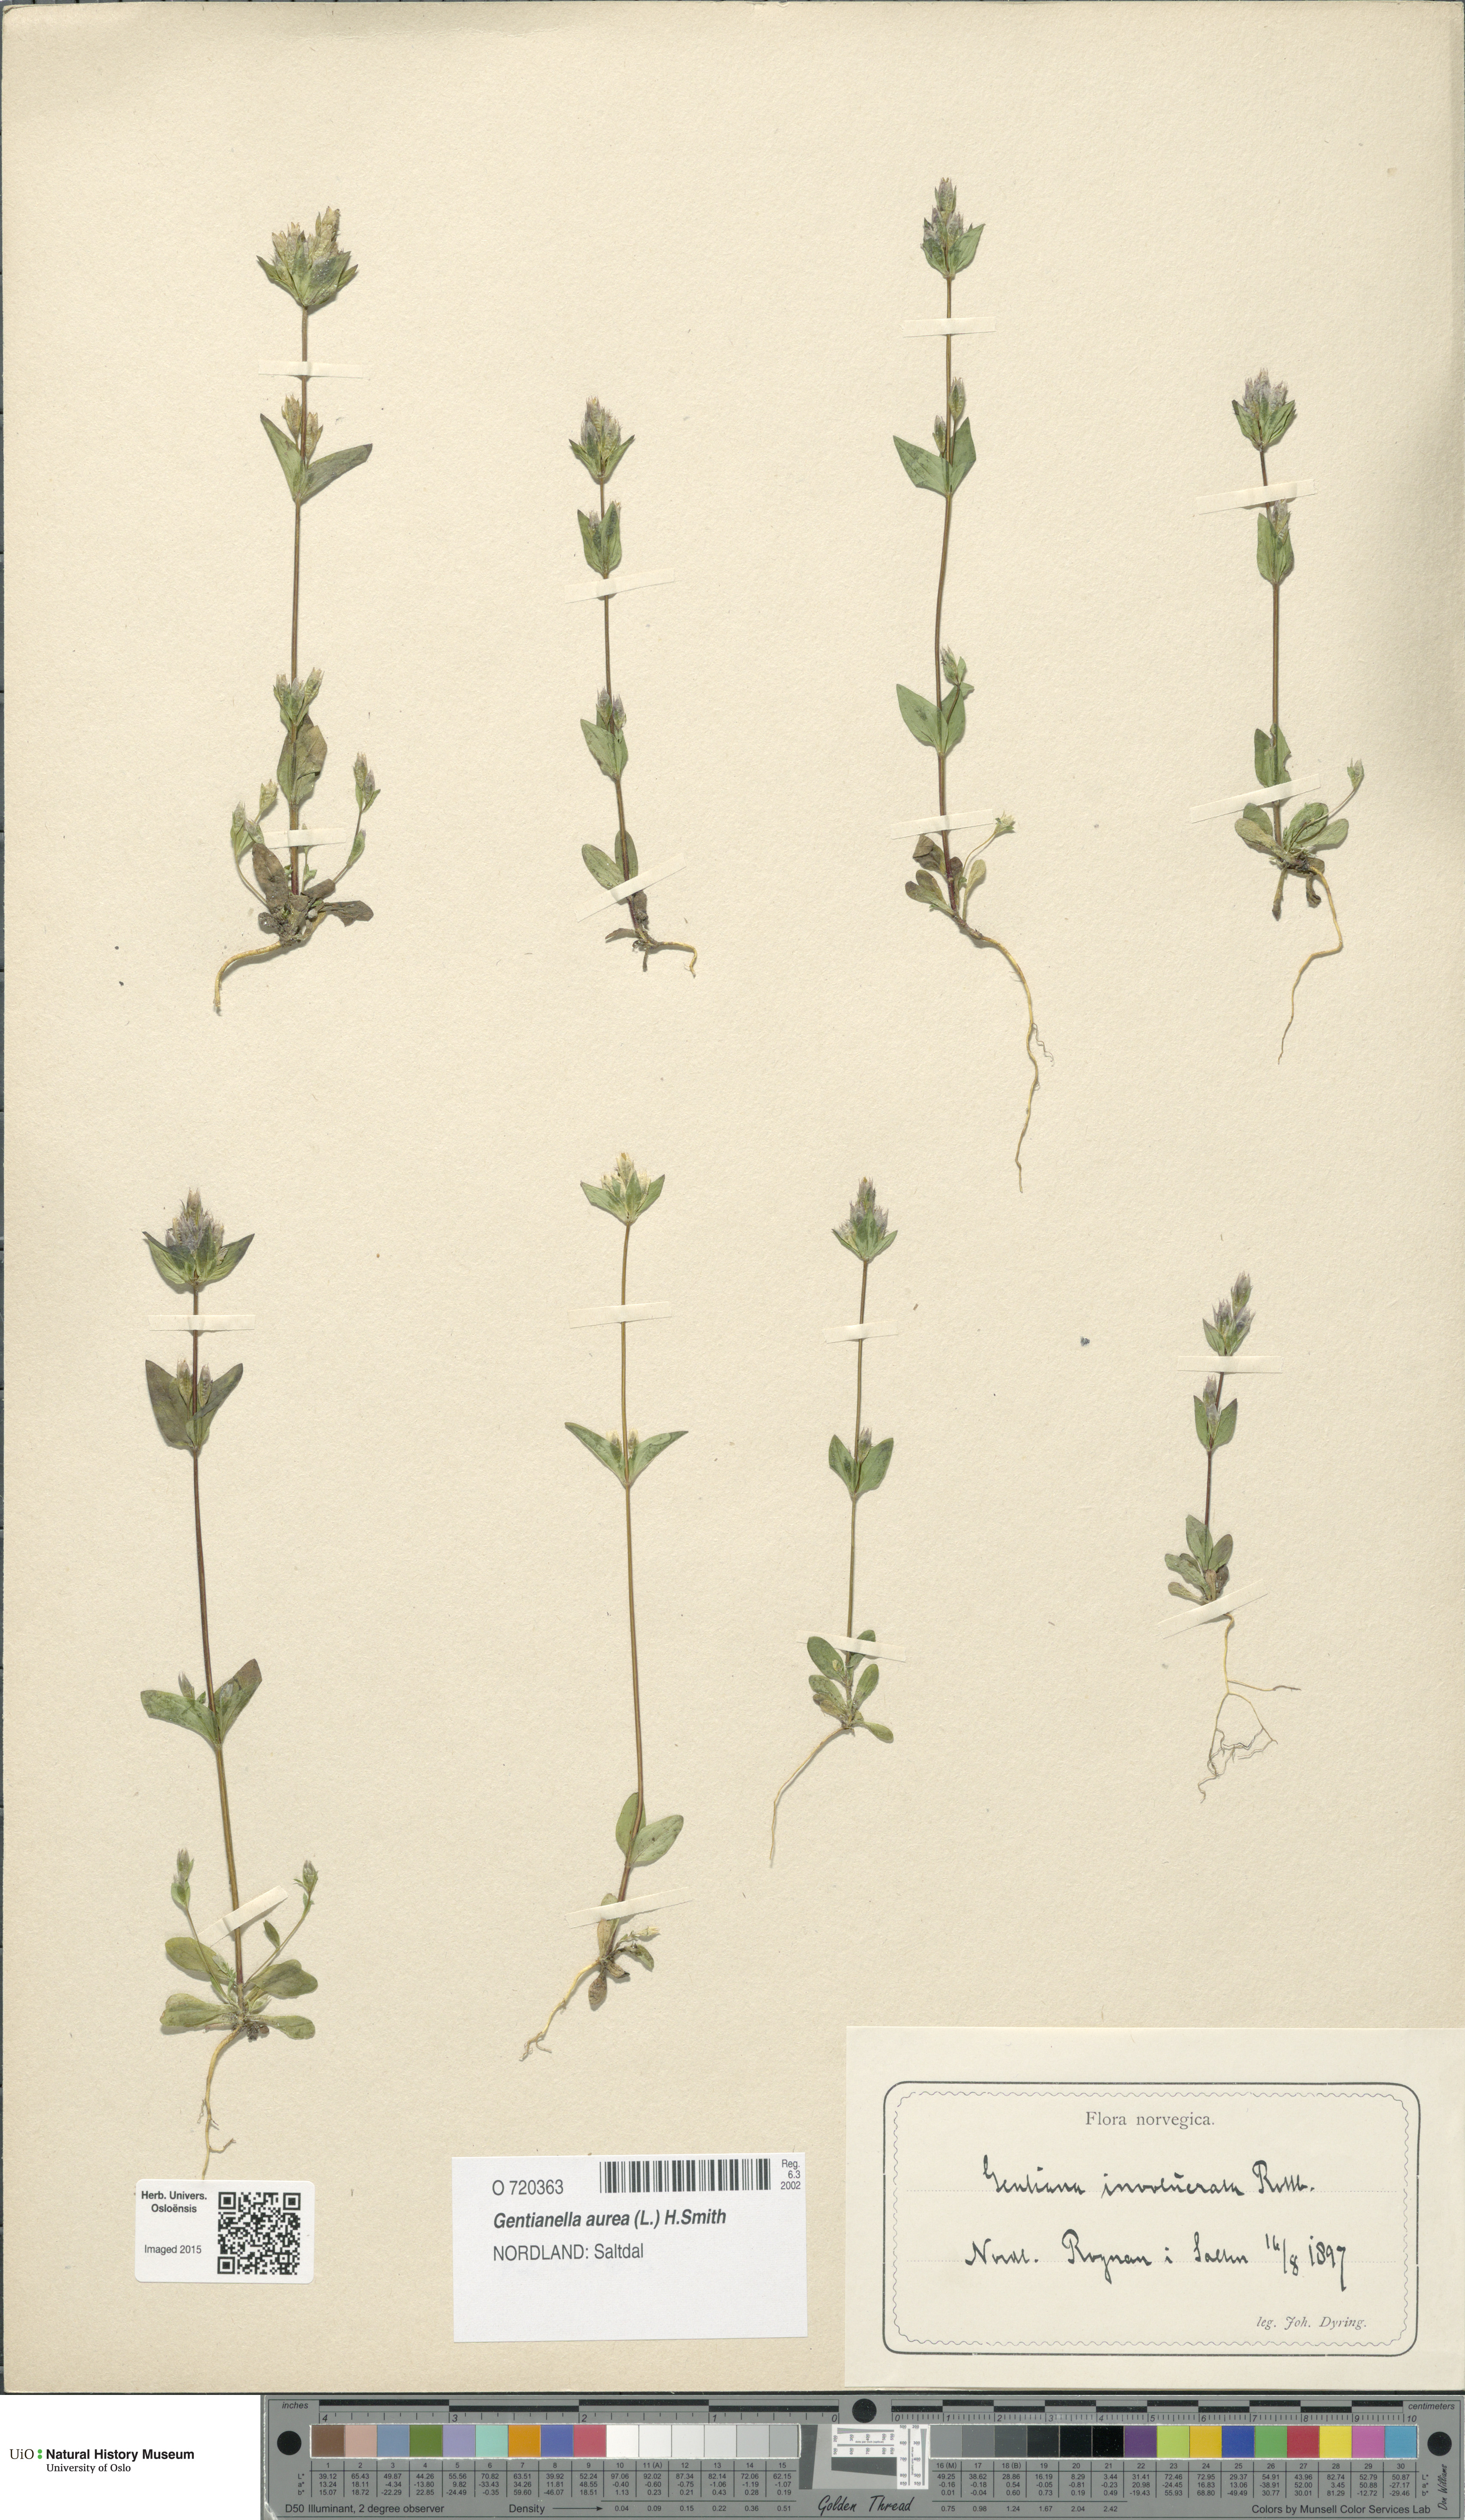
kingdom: Plantae
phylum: Tracheophyta
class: Magnoliopsida
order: Gentianales
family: Gentianaceae
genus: Gentianella
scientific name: Gentianella aurea
